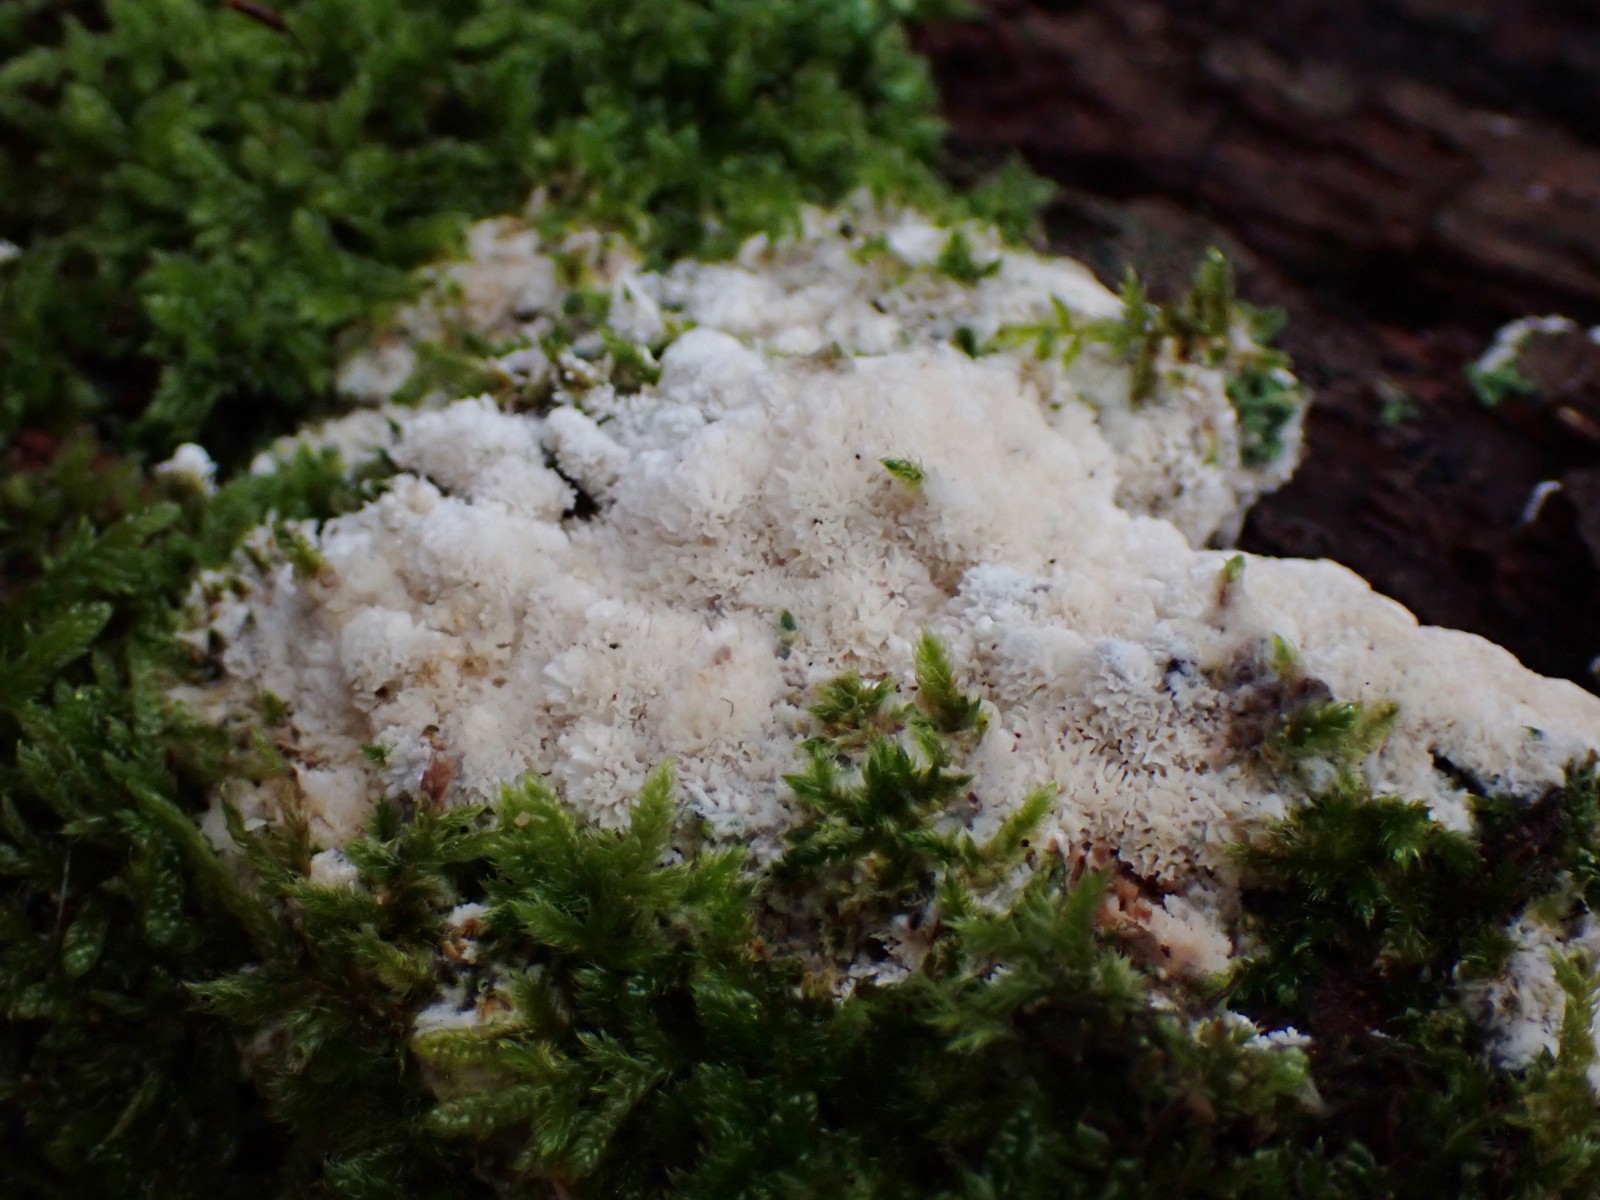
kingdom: Fungi
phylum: Basidiomycota
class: Agaricomycetes
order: Hymenochaetales
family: Schizoporaceae
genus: Xylodon
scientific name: Xylodon
